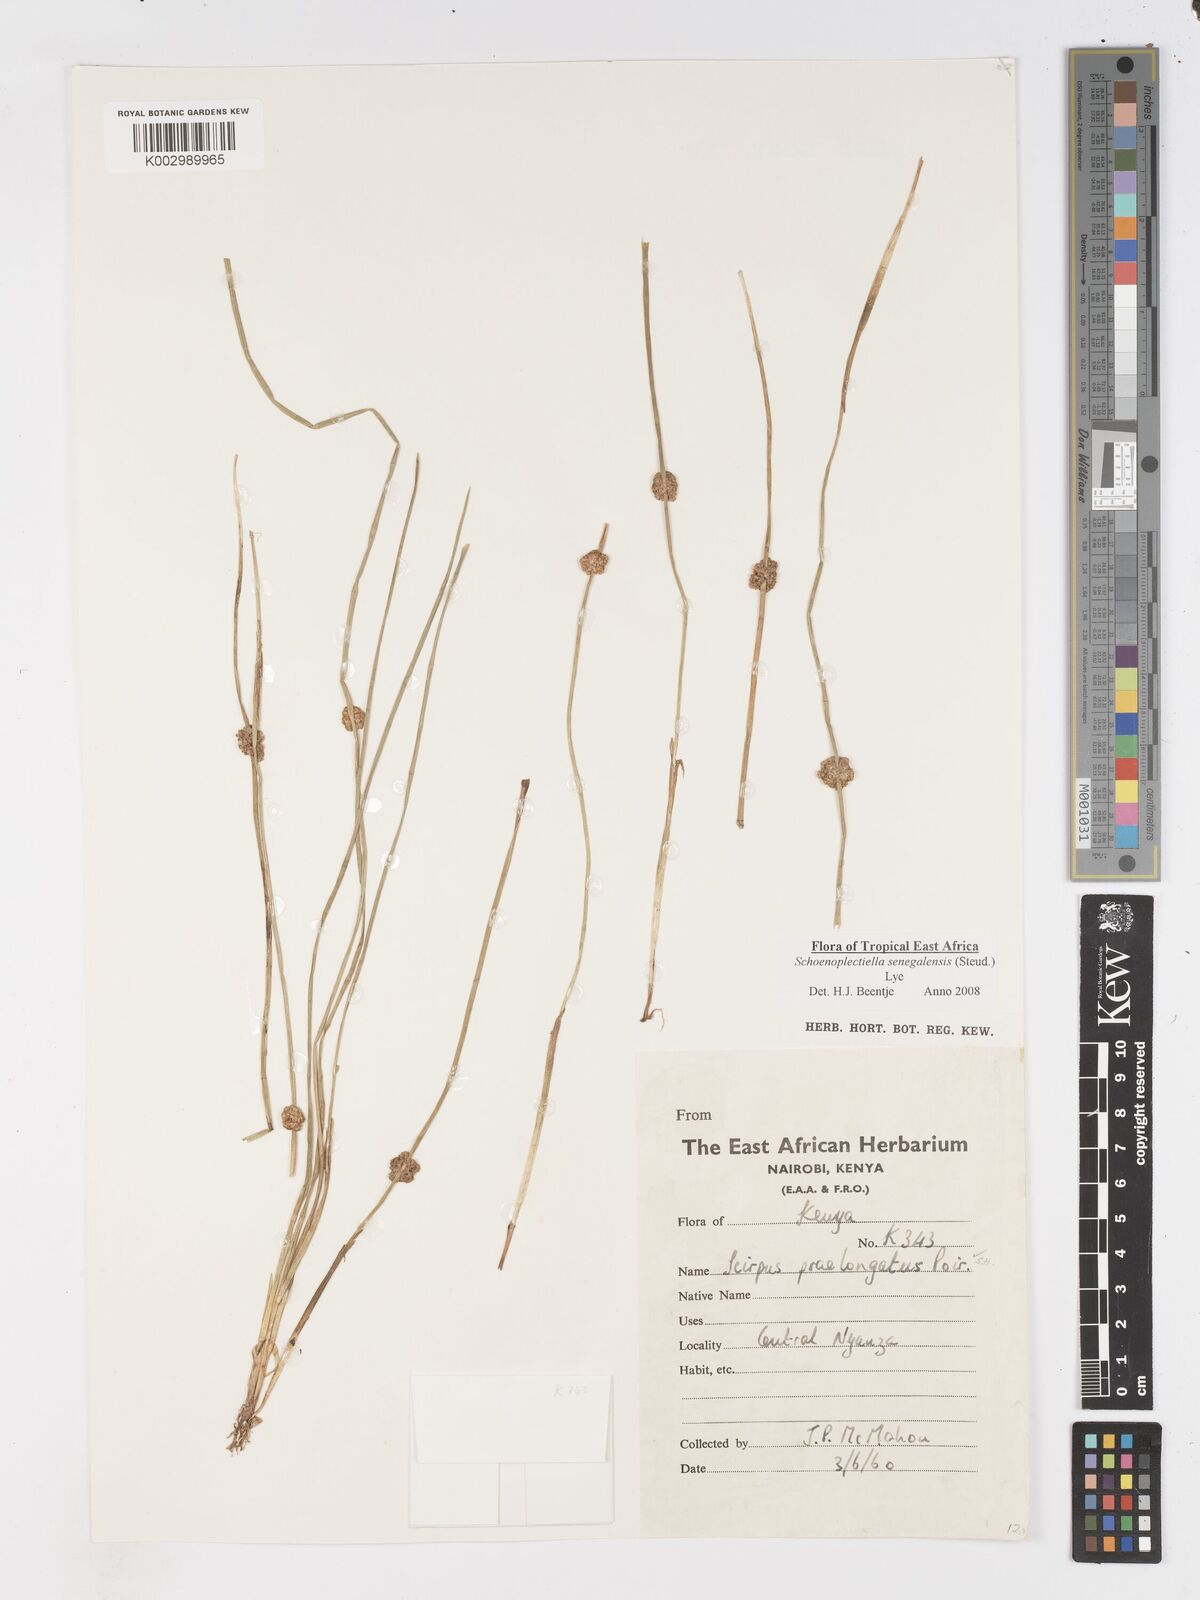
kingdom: Plantae
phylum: Tracheophyta
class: Liliopsida
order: Poales
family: Cyperaceae
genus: Schoenoplectiella
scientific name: Schoenoplectiella senegalensis
